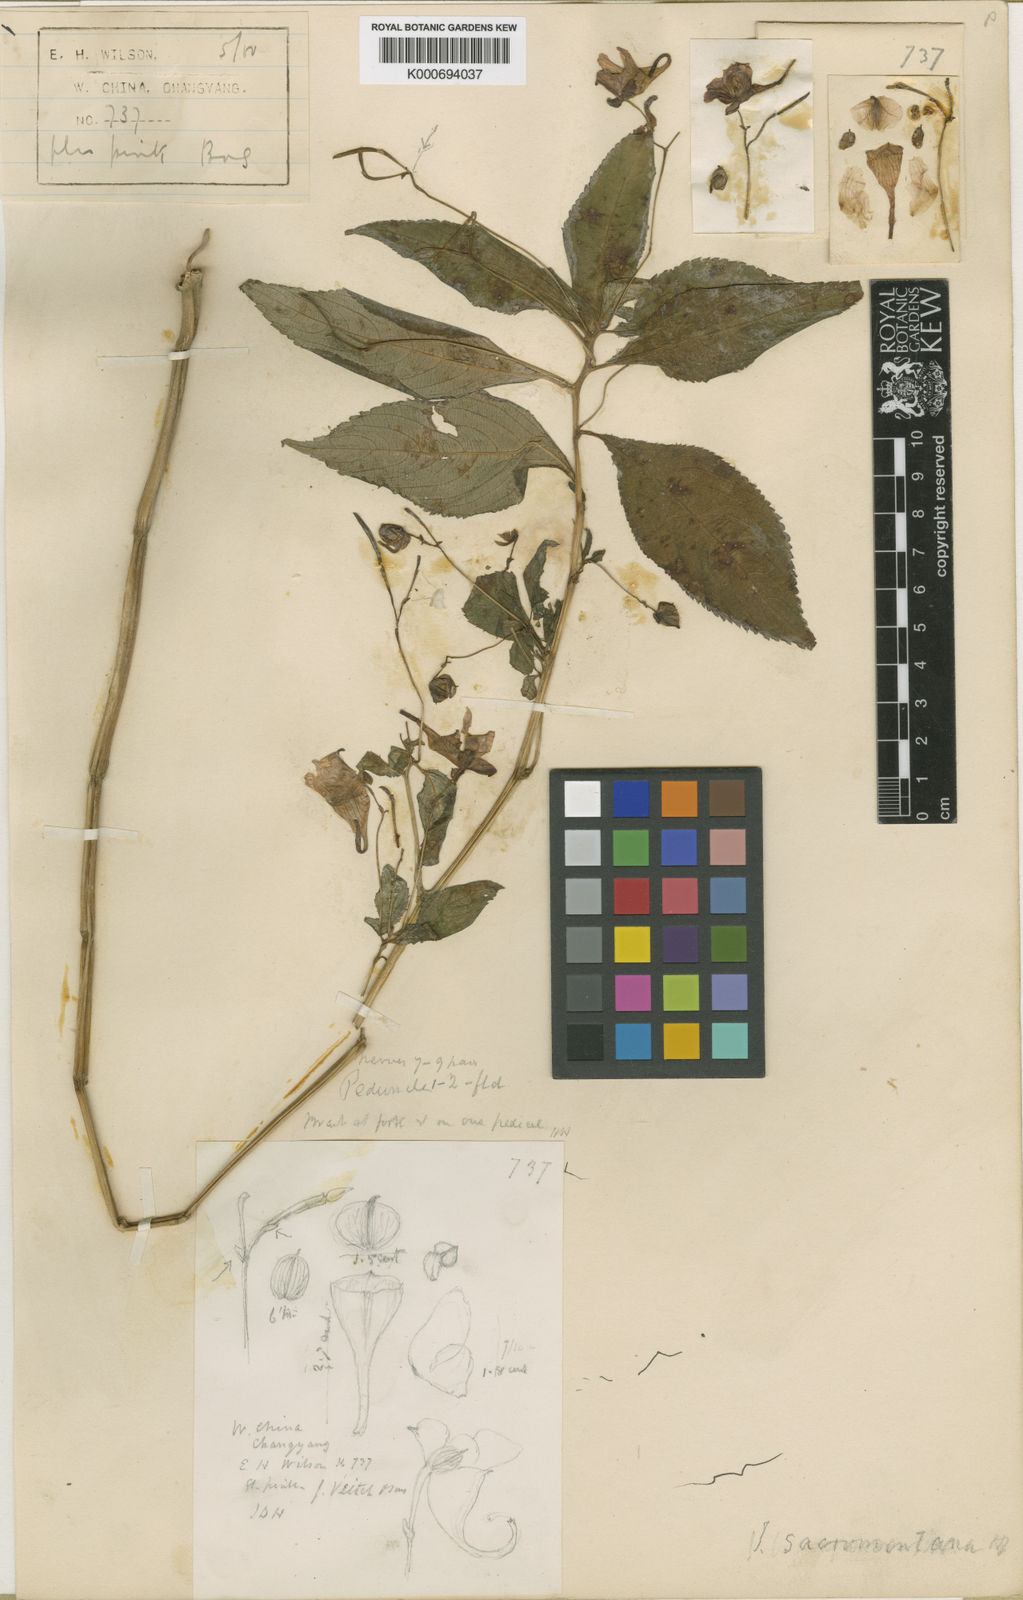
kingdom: Plantae
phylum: Tracheophyta
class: Magnoliopsida
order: Ericales
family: Balsaminaceae
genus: Impatiens
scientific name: Impatiens
